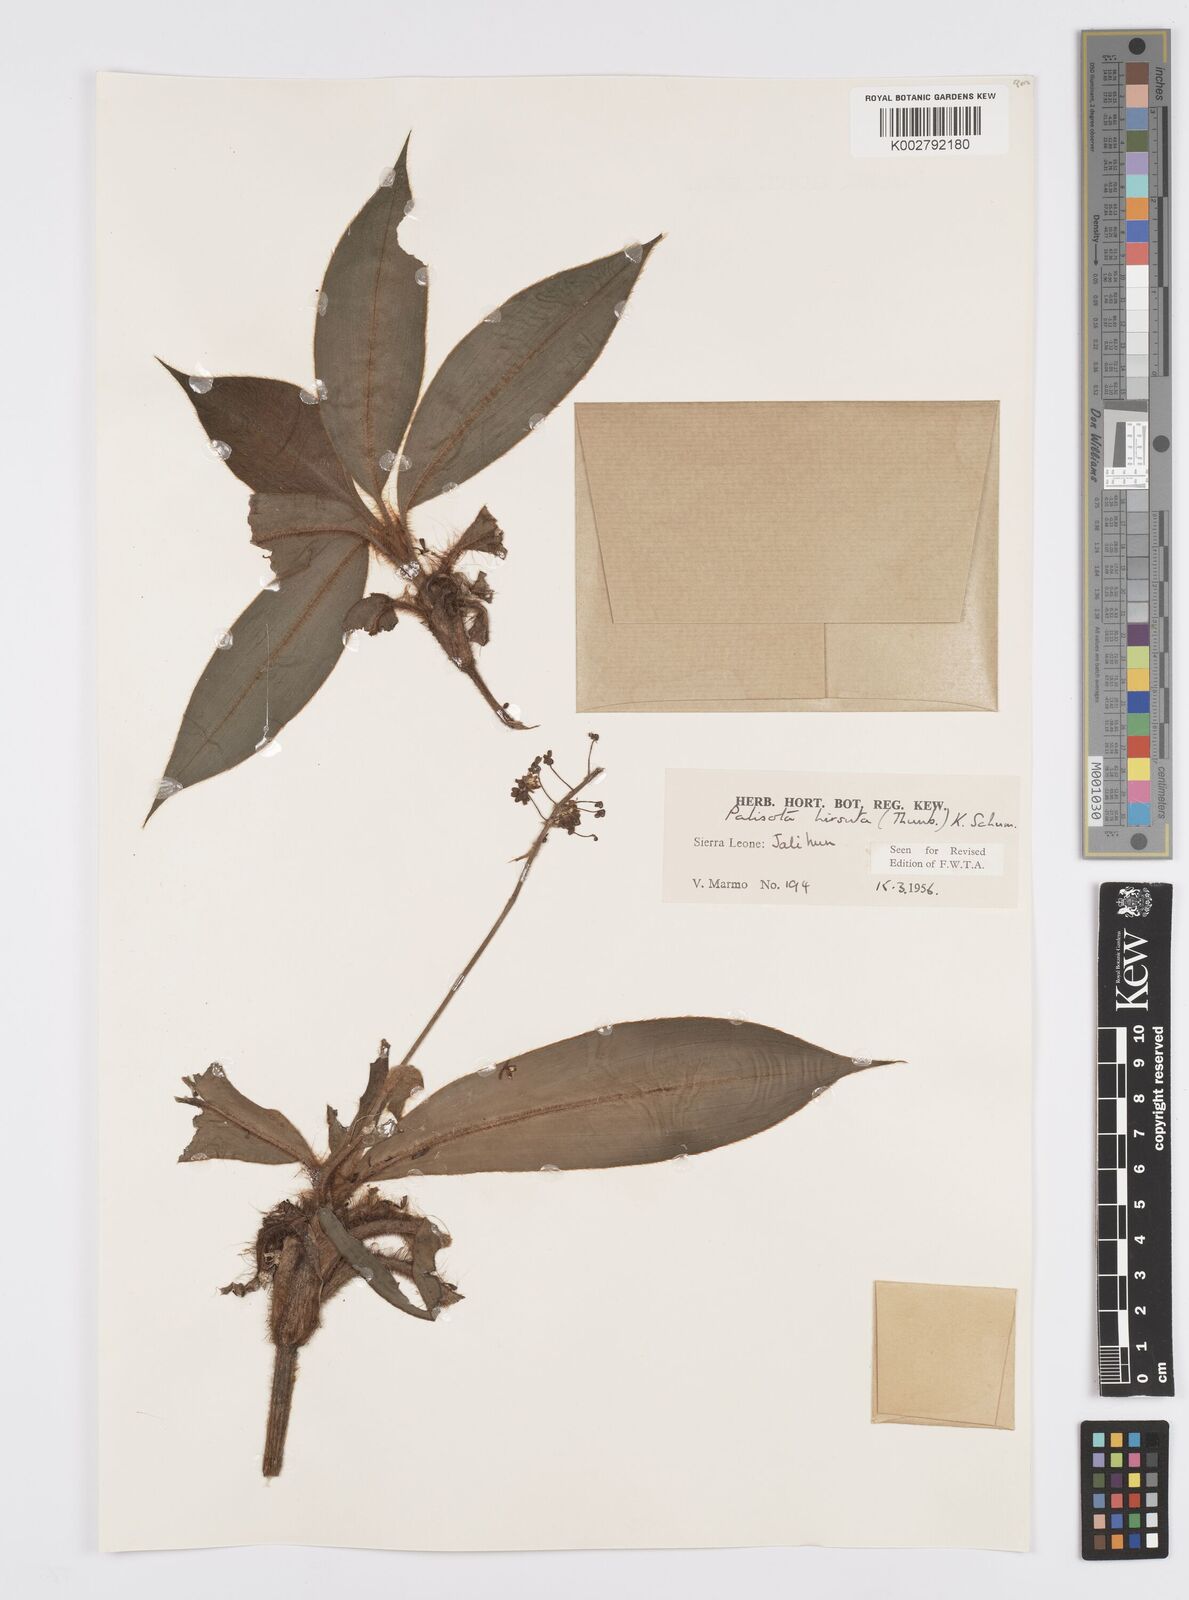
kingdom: Plantae
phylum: Tracheophyta
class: Liliopsida
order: Commelinales
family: Commelinaceae
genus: Palisota
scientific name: Palisota hirsuta
